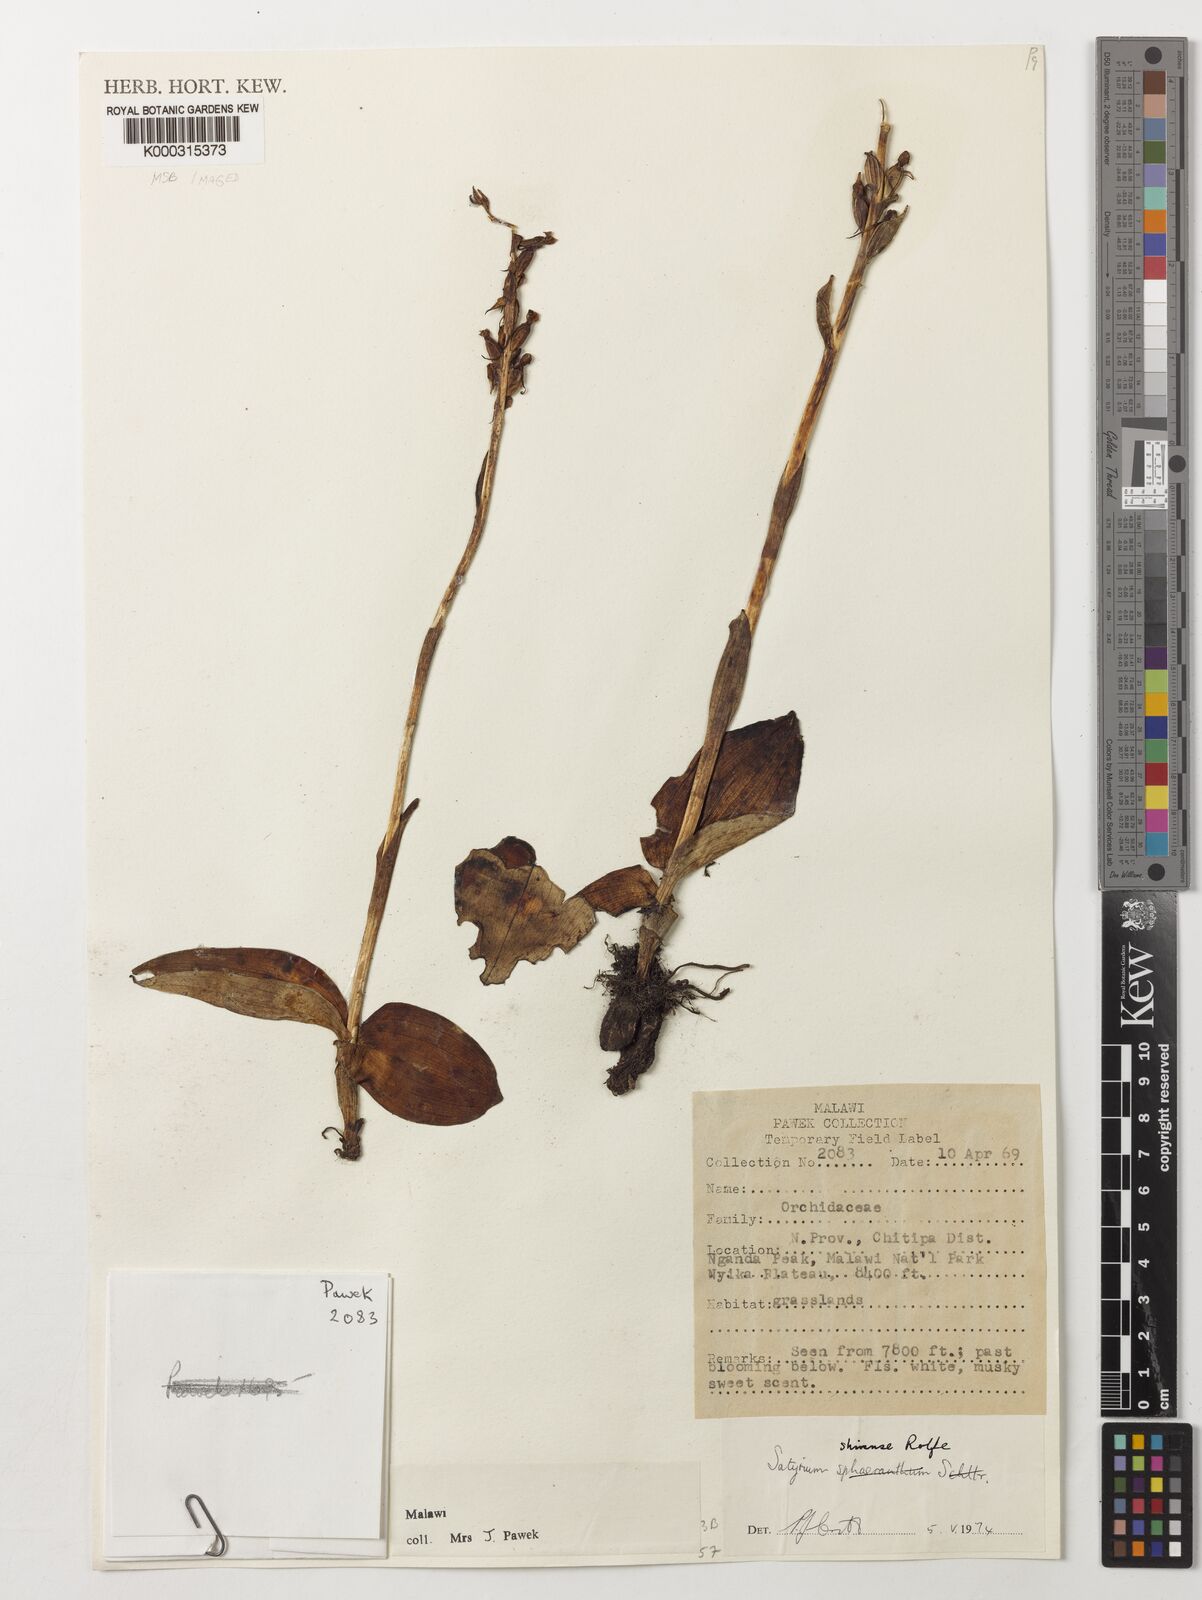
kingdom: Plantae
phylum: Tracheophyta
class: Liliopsida
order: Asparagales
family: Orchidaceae
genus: Satyrium
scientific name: Satyrium shirense
